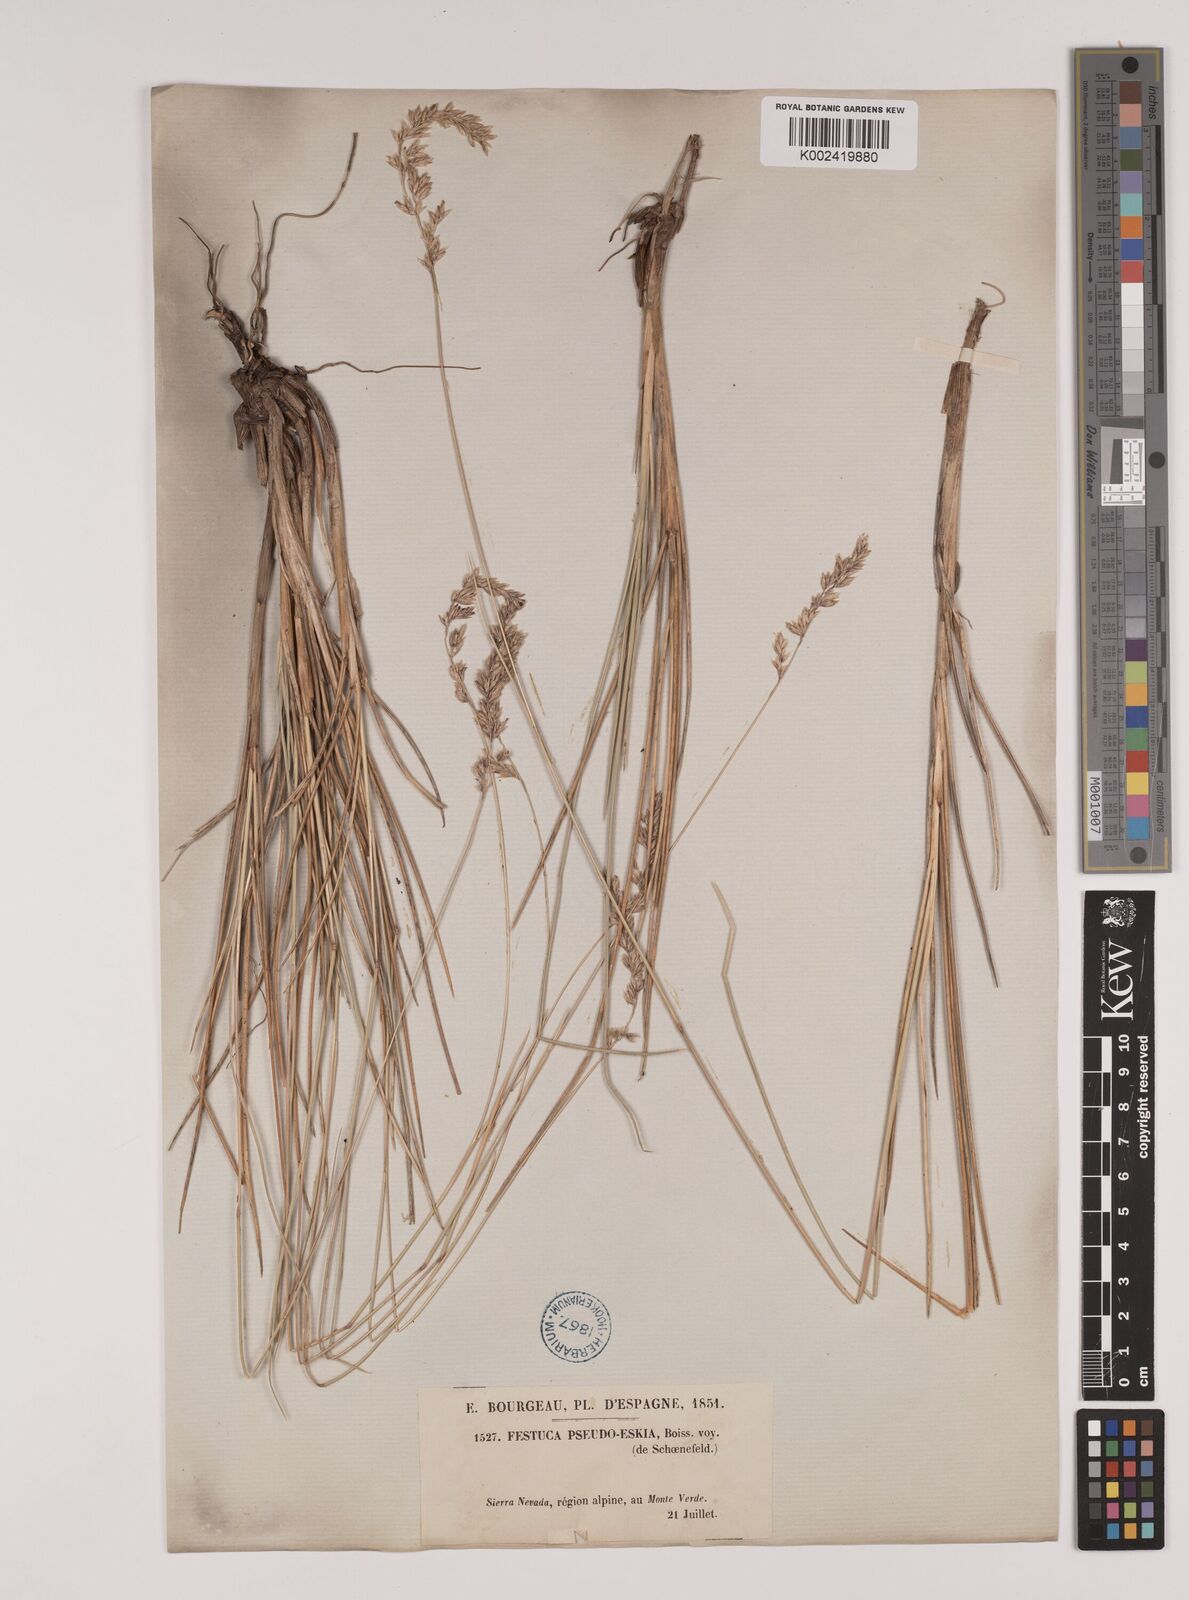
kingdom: Plantae
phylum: Tracheophyta
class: Liliopsida
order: Poales
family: Poaceae
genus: Festuca
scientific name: Festuca pseudeskia
